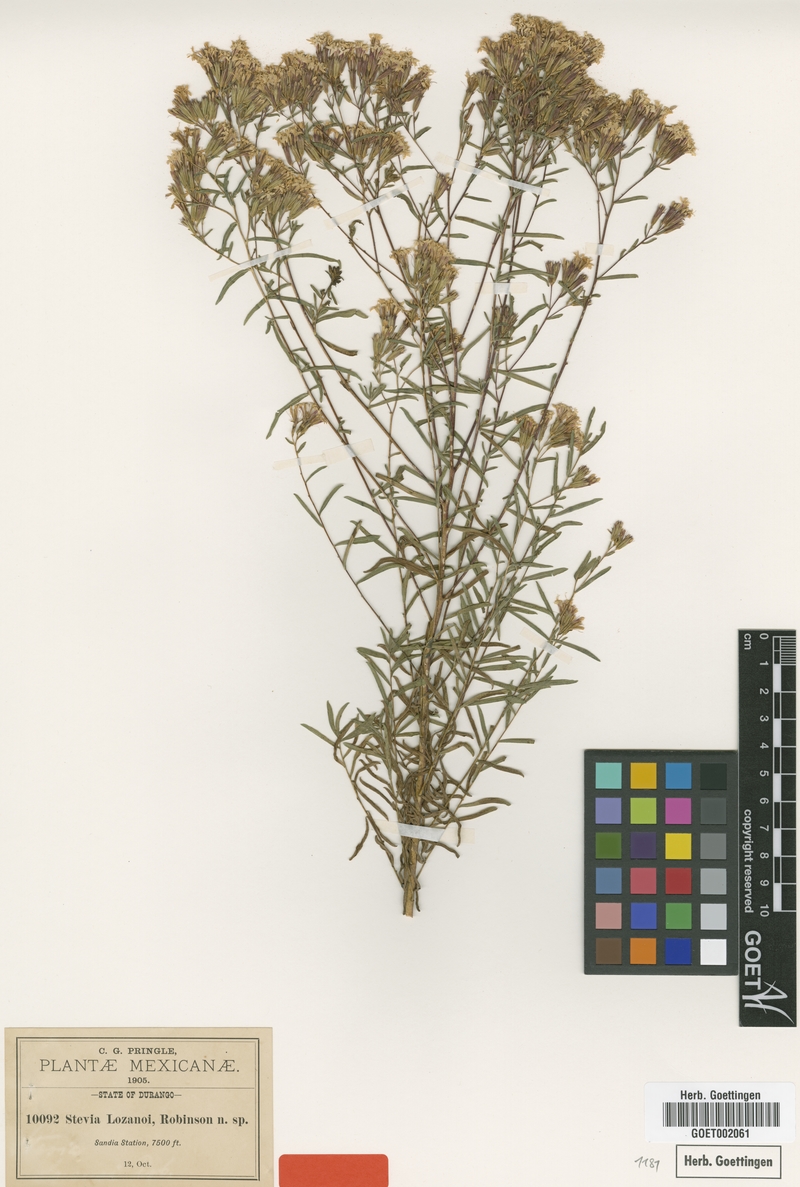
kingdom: Plantae
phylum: Tracheophyta
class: Magnoliopsida
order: Asterales
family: Asteraceae
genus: Stevia
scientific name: Stevia viscida
